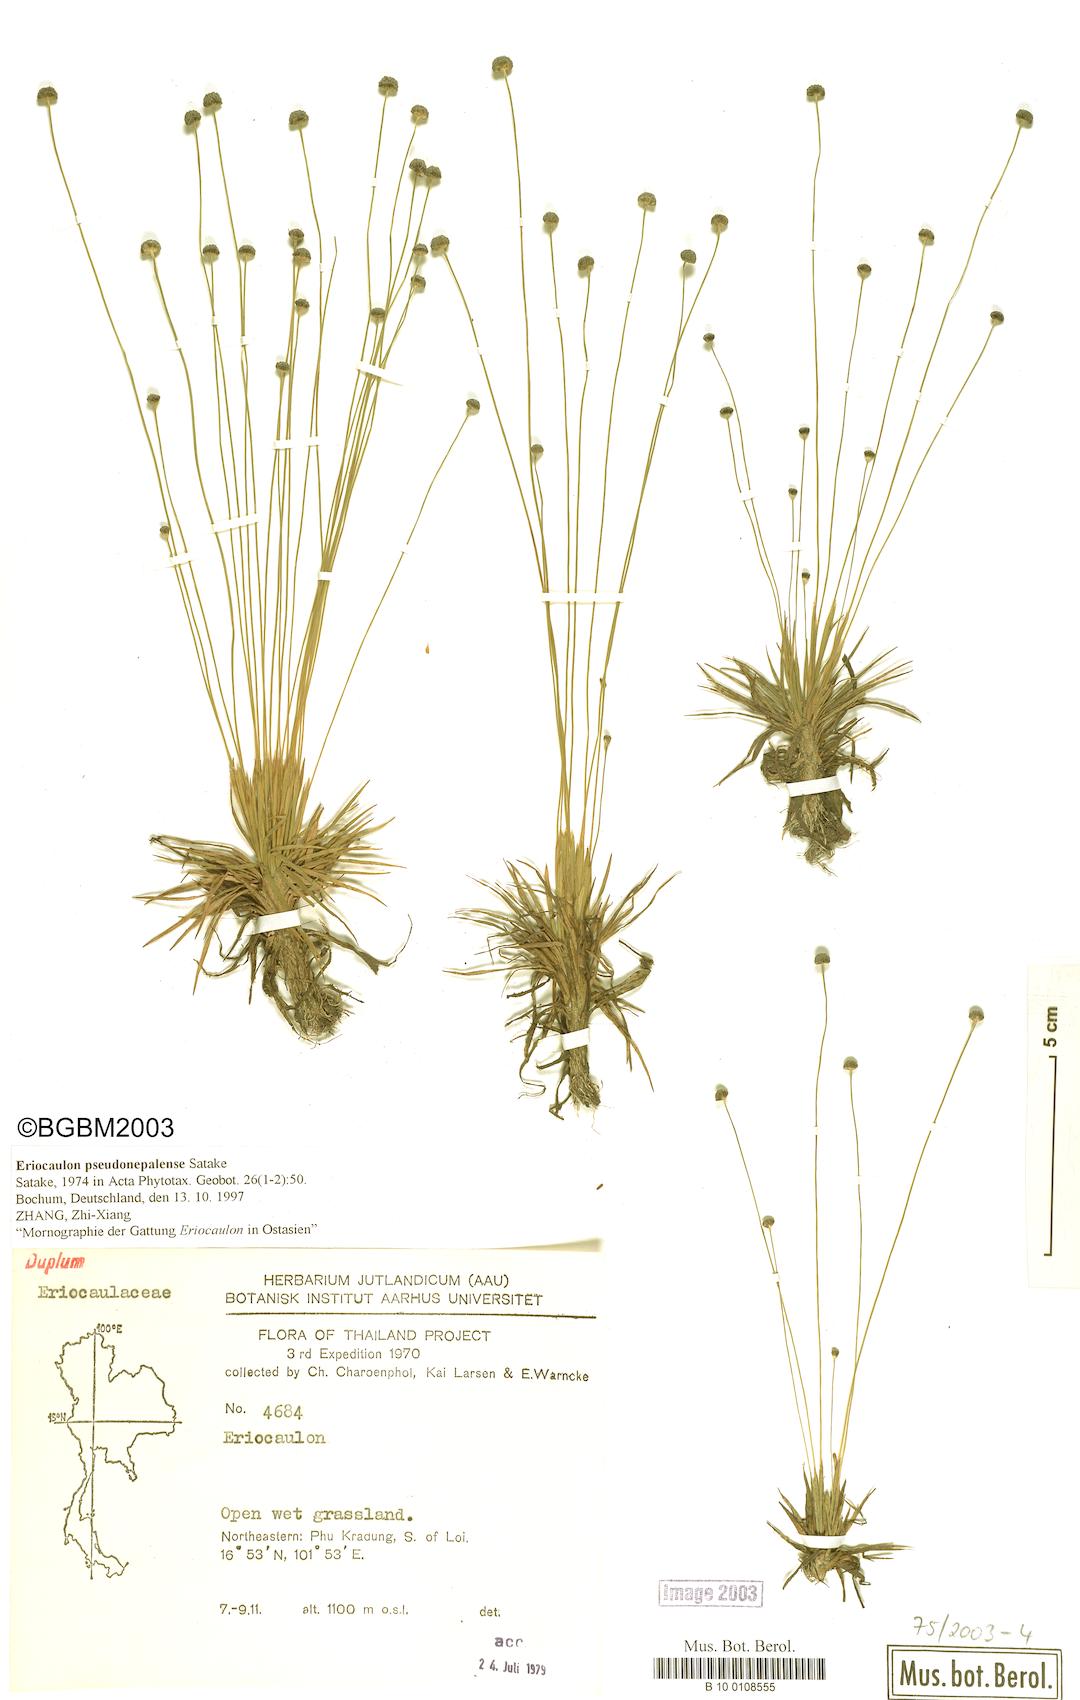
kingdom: Plantae
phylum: Tracheophyta
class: Liliopsida
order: Poales
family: Eriocaulaceae
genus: Eriocaulon
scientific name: Eriocaulon nepalense
